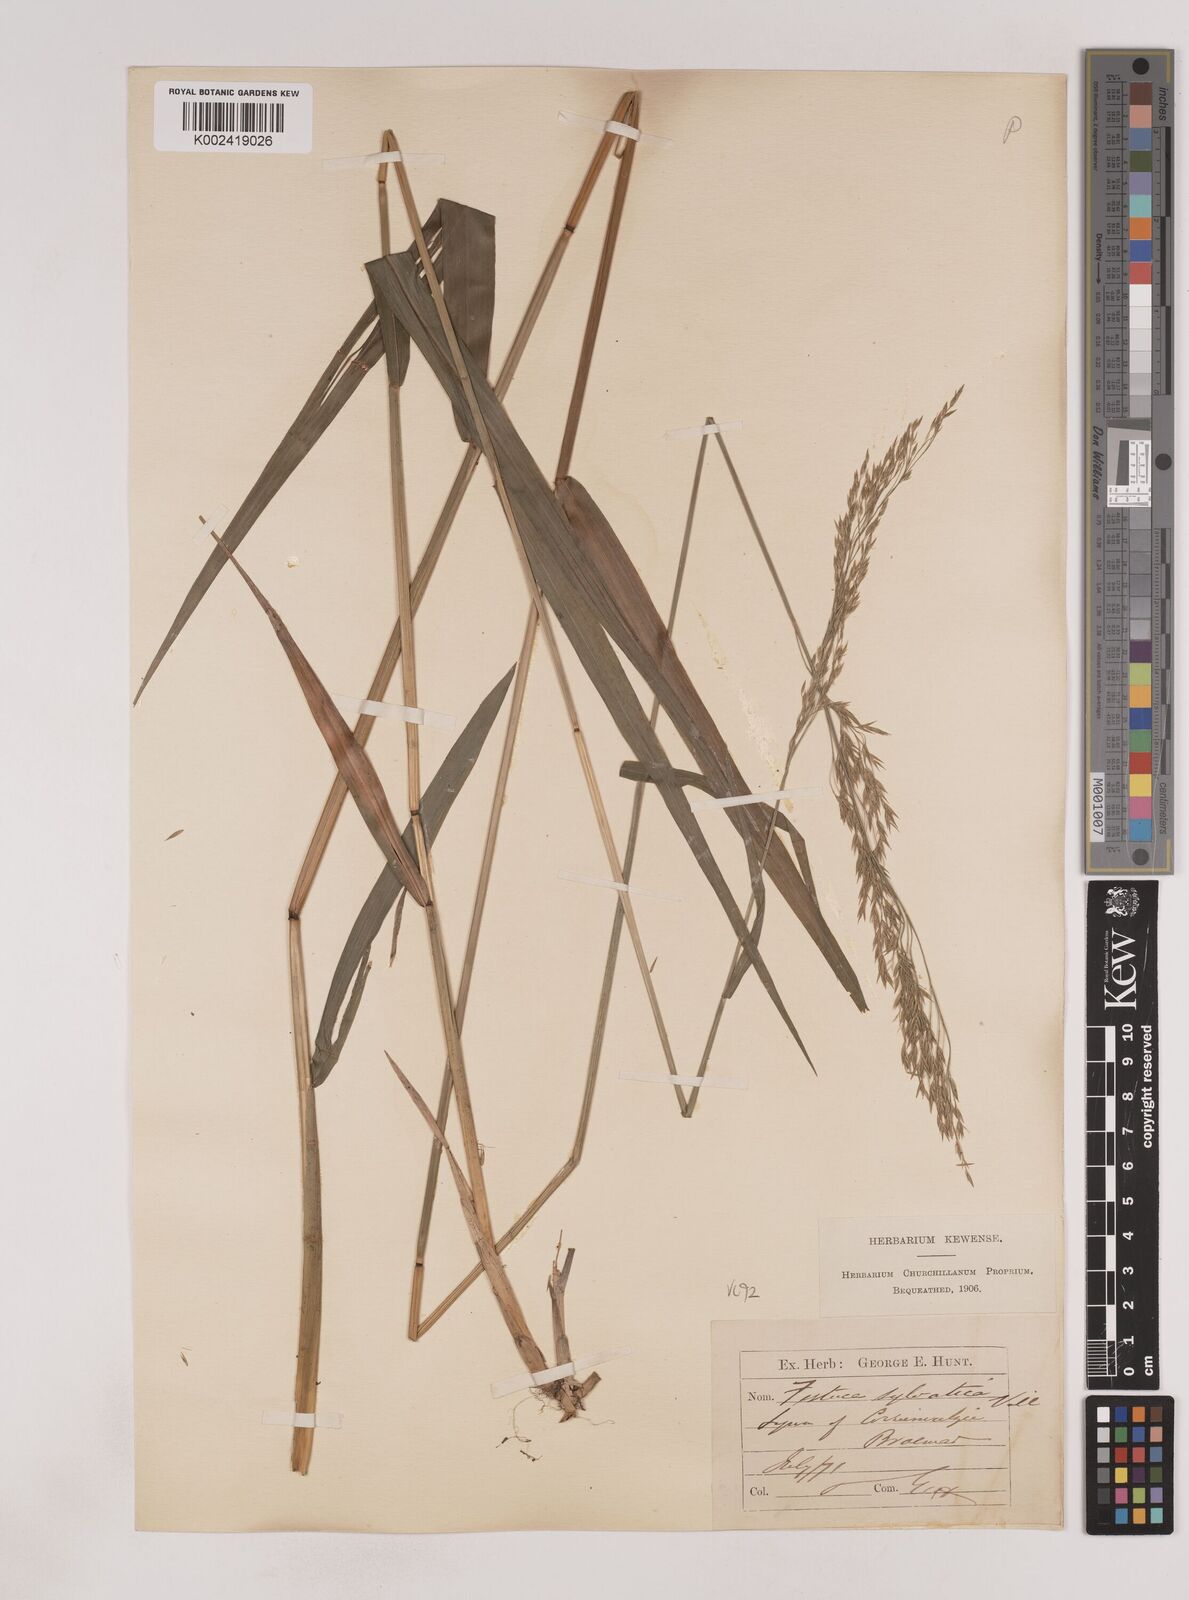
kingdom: Plantae
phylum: Tracheophyta
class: Liliopsida
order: Poales
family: Poaceae
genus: Festuca
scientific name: Festuca drymeja
